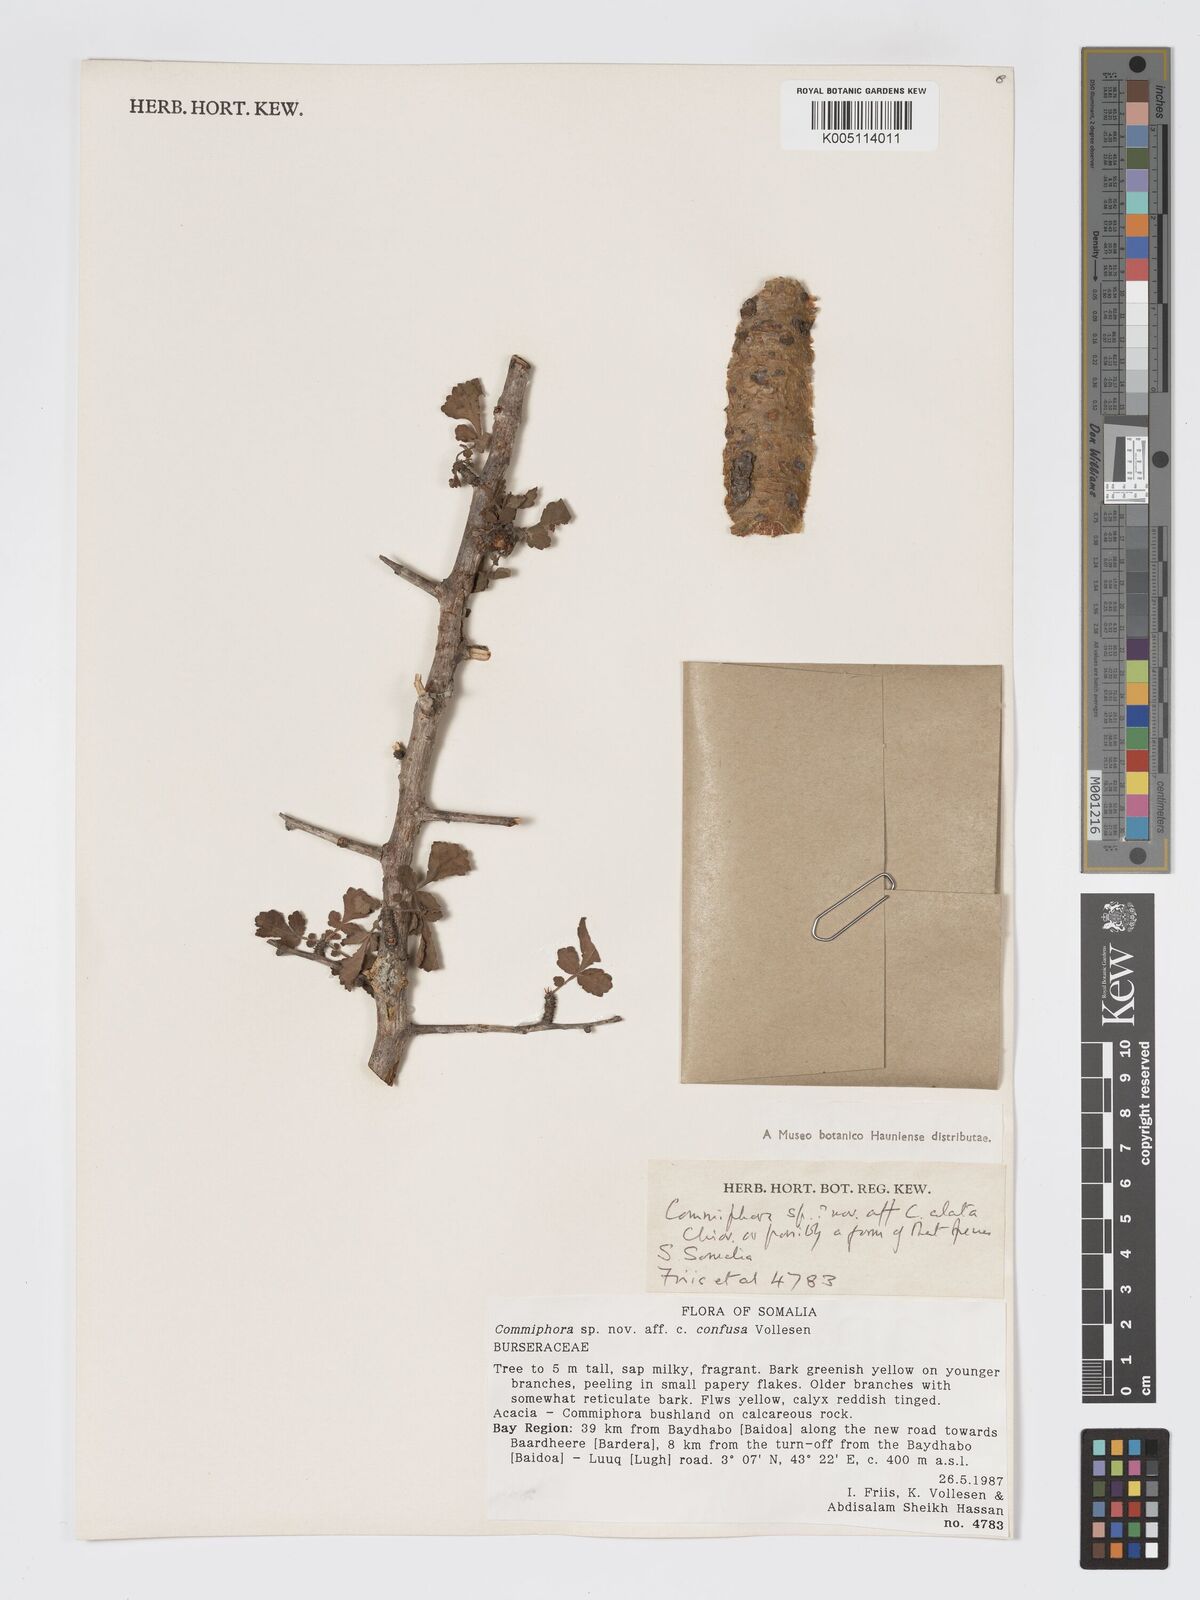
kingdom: Plantae
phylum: Tracheophyta
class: Magnoliopsida
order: Sapindales
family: Burseraceae
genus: Commiphora
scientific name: Commiphora alata
